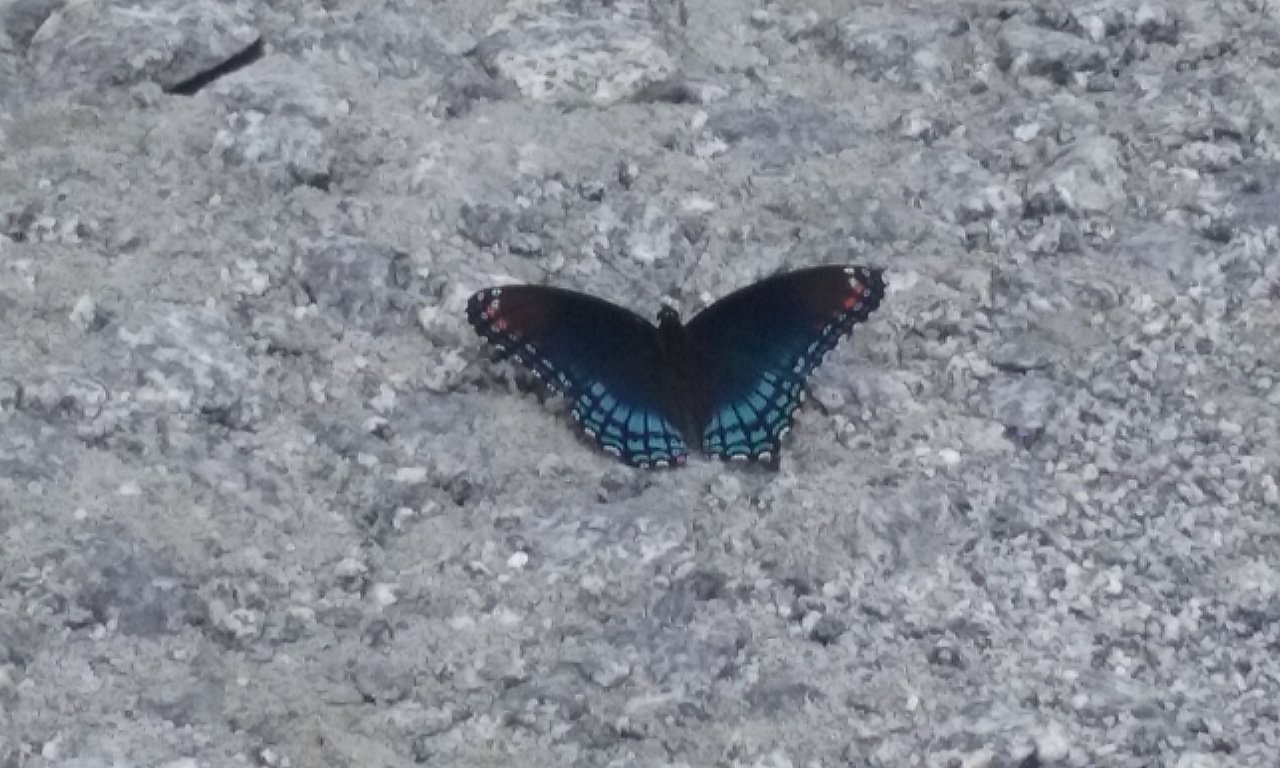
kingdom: Animalia
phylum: Arthropoda
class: Insecta
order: Lepidoptera
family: Nymphalidae
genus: Limenitis
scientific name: Limenitis astyanax
